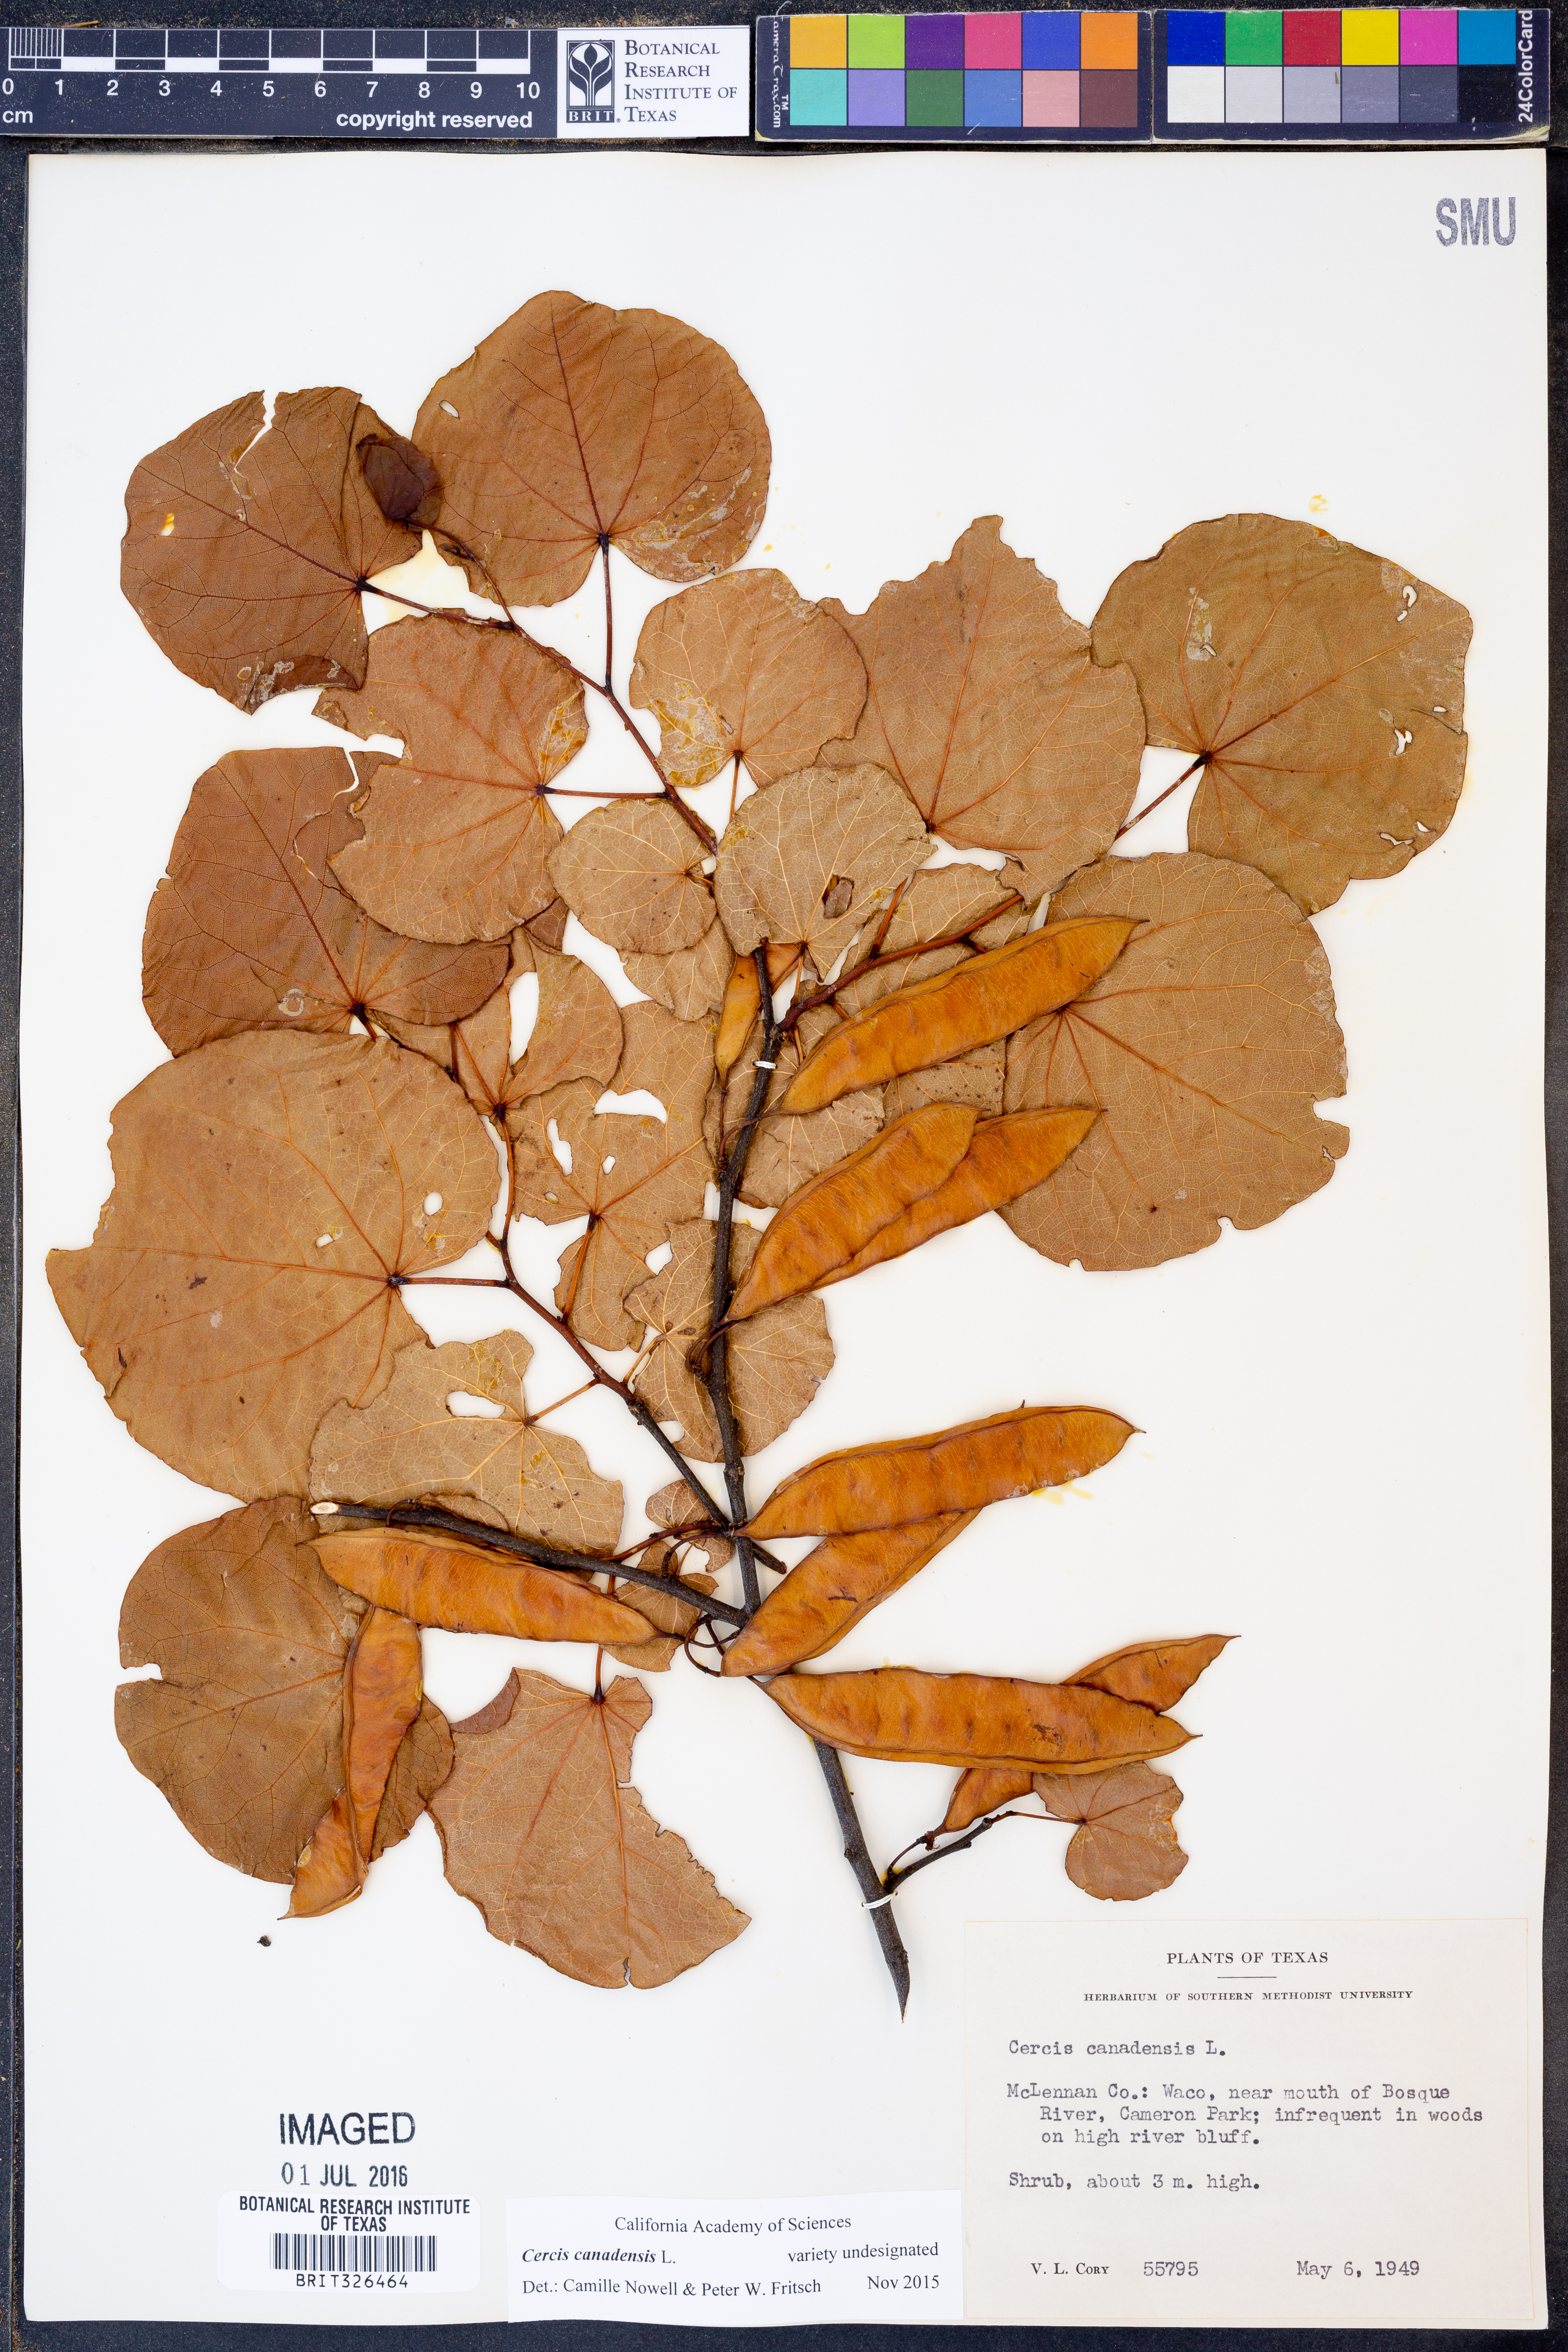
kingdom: Plantae
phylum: Tracheophyta
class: Magnoliopsida
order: Fabales
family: Fabaceae
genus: Cercis
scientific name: Cercis canadensis
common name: Eastern redbud
